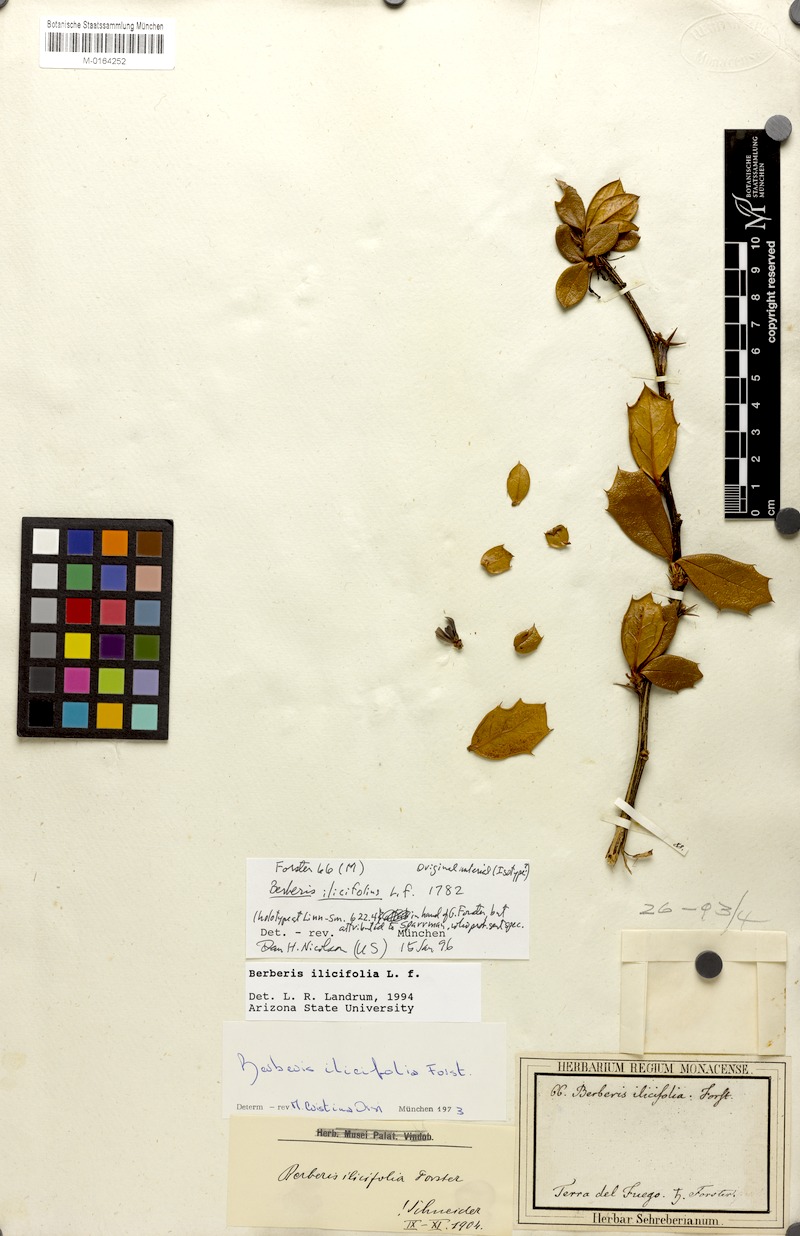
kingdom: Plantae
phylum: Tracheophyta
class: Magnoliopsida
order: Ranunculales
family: Berberidaceae
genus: Berberis
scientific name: Berberis ilicifolia
